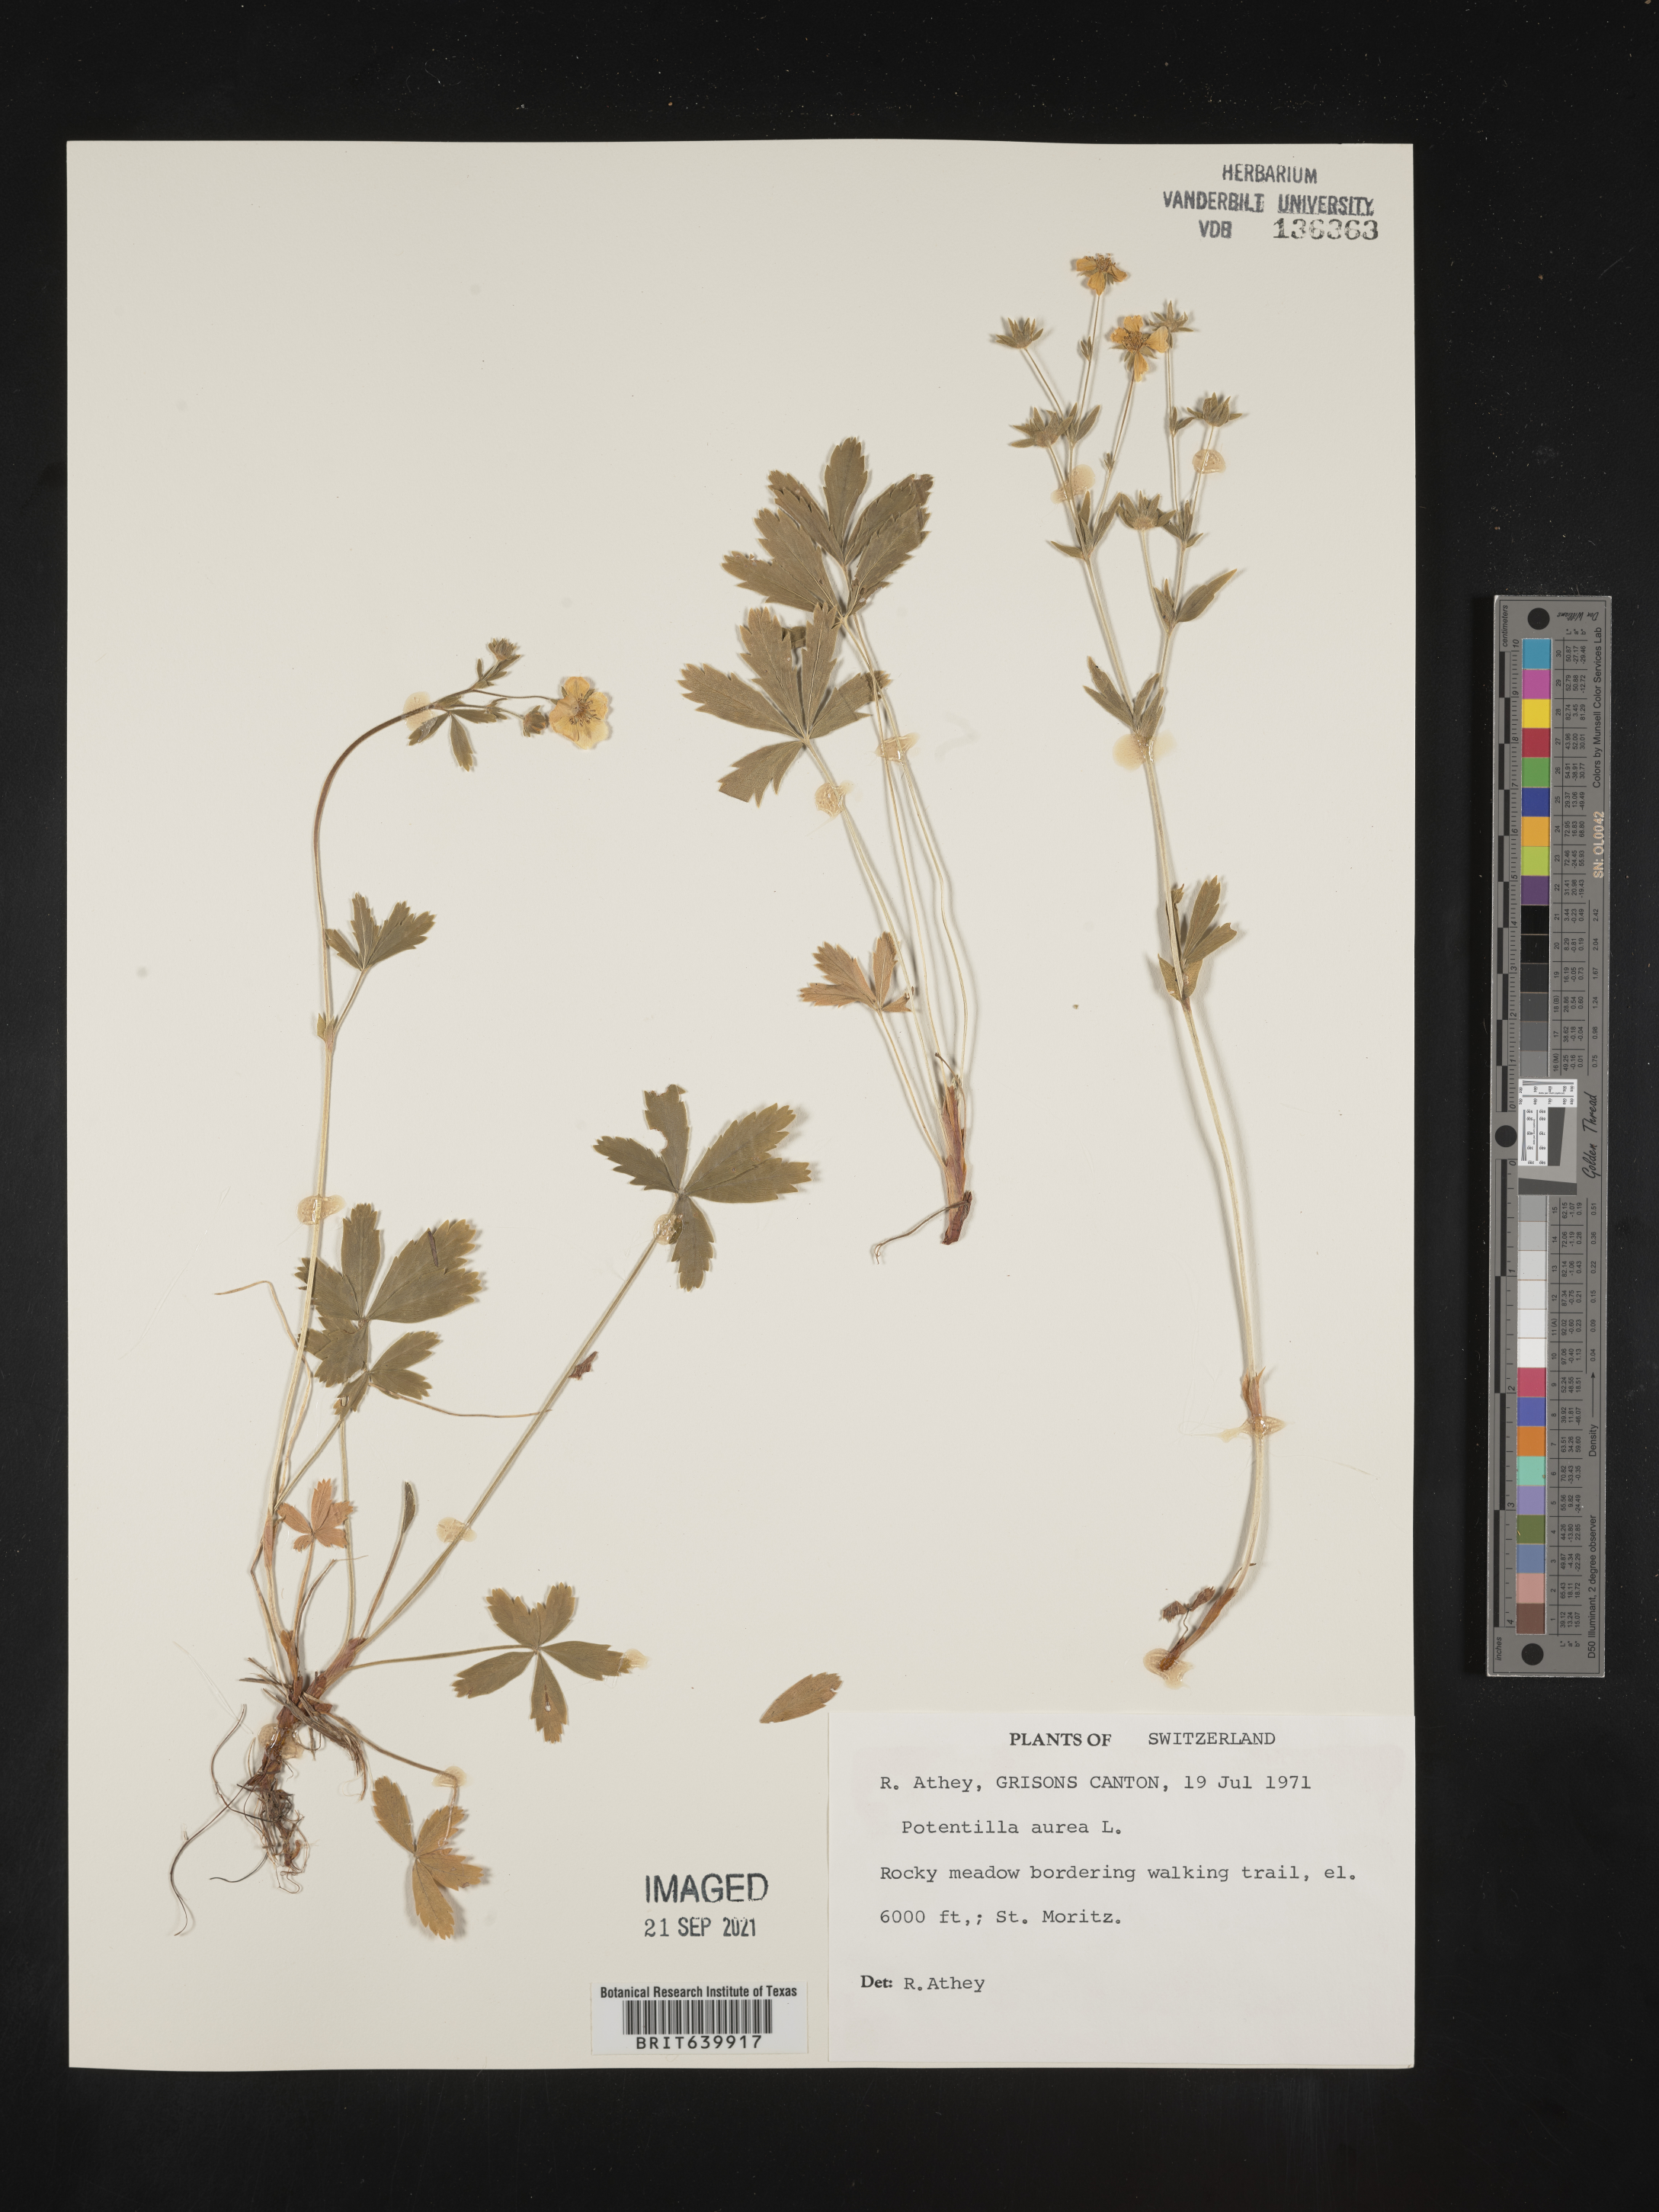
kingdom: Plantae
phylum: Tracheophyta
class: Magnoliopsida
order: Rosales
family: Rosaceae
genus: Potentilla
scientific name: Potentilla
